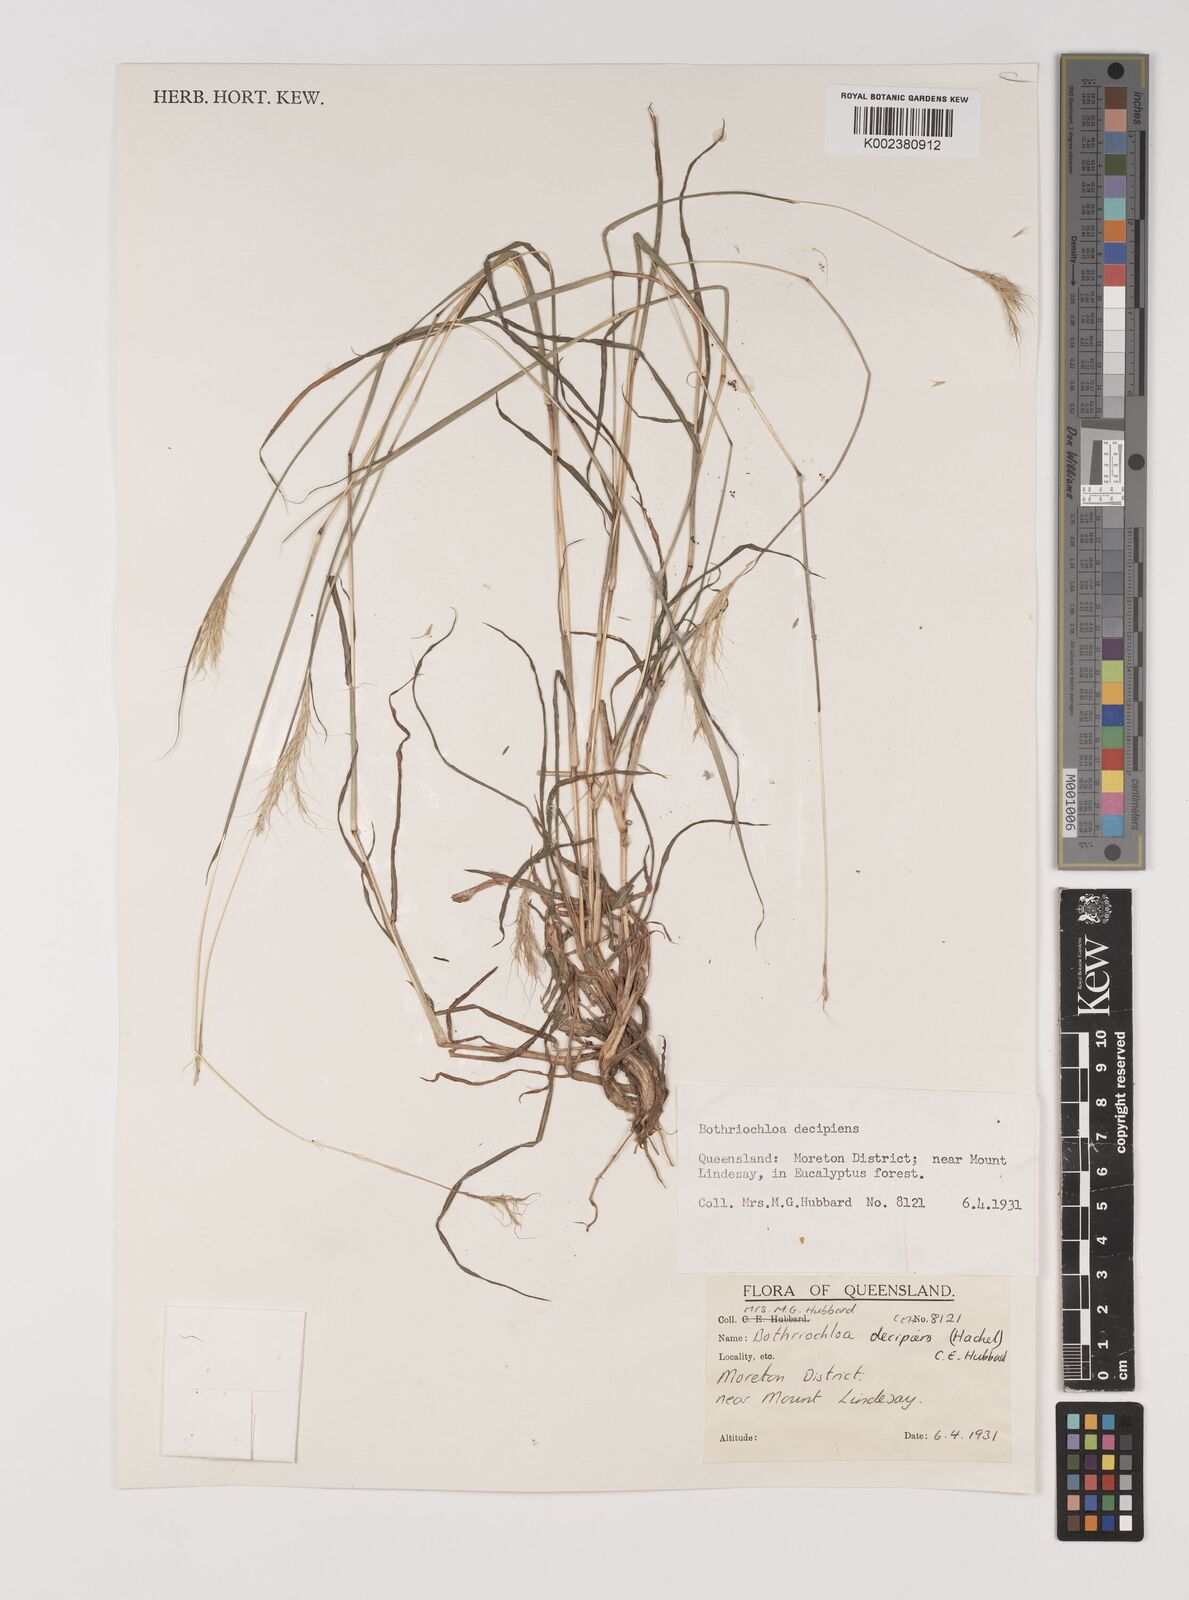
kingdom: Plantae
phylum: Tracheophyta
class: Liliopsida
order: Poales
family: Poaceae
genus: Bothriochloa
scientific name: Bothriochloa decipiens
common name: Pitted-bluegrass
